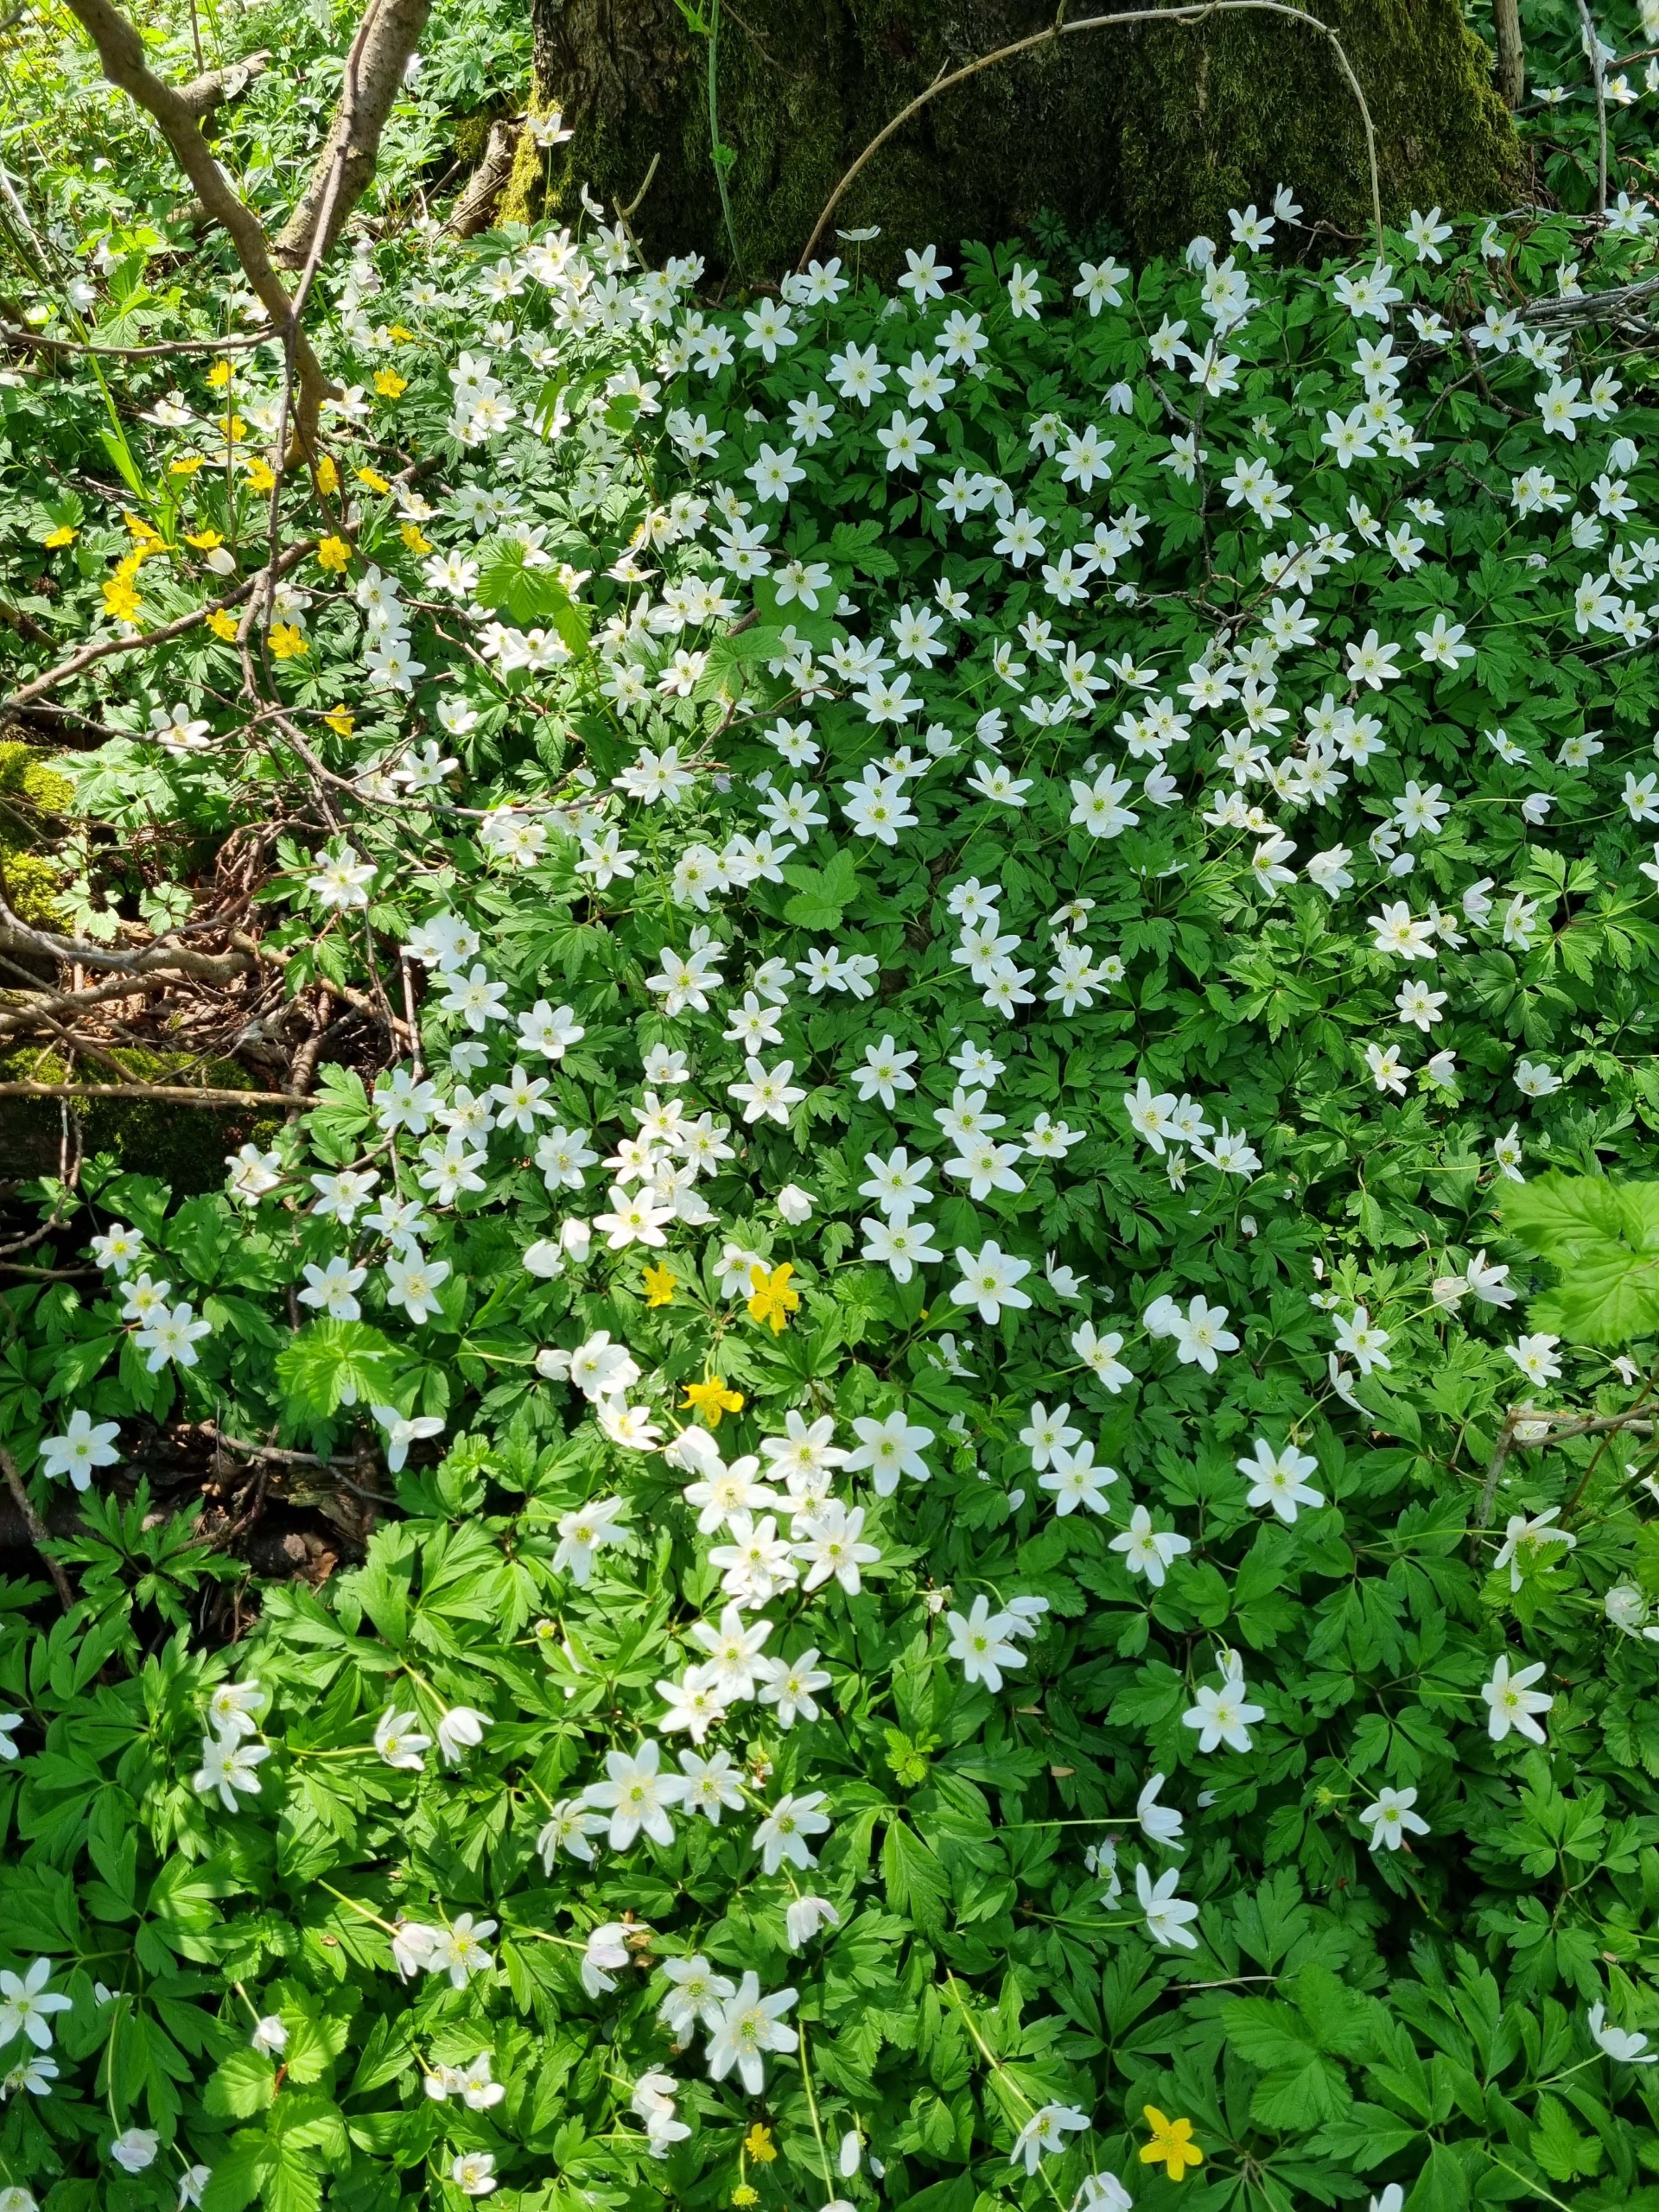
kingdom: Plantae
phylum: Tracheophyta
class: Magnoliopsida
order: Ranunculales
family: Ranunculaceae
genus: Anemone
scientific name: Anemone nemorosa
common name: Hvid anemone
